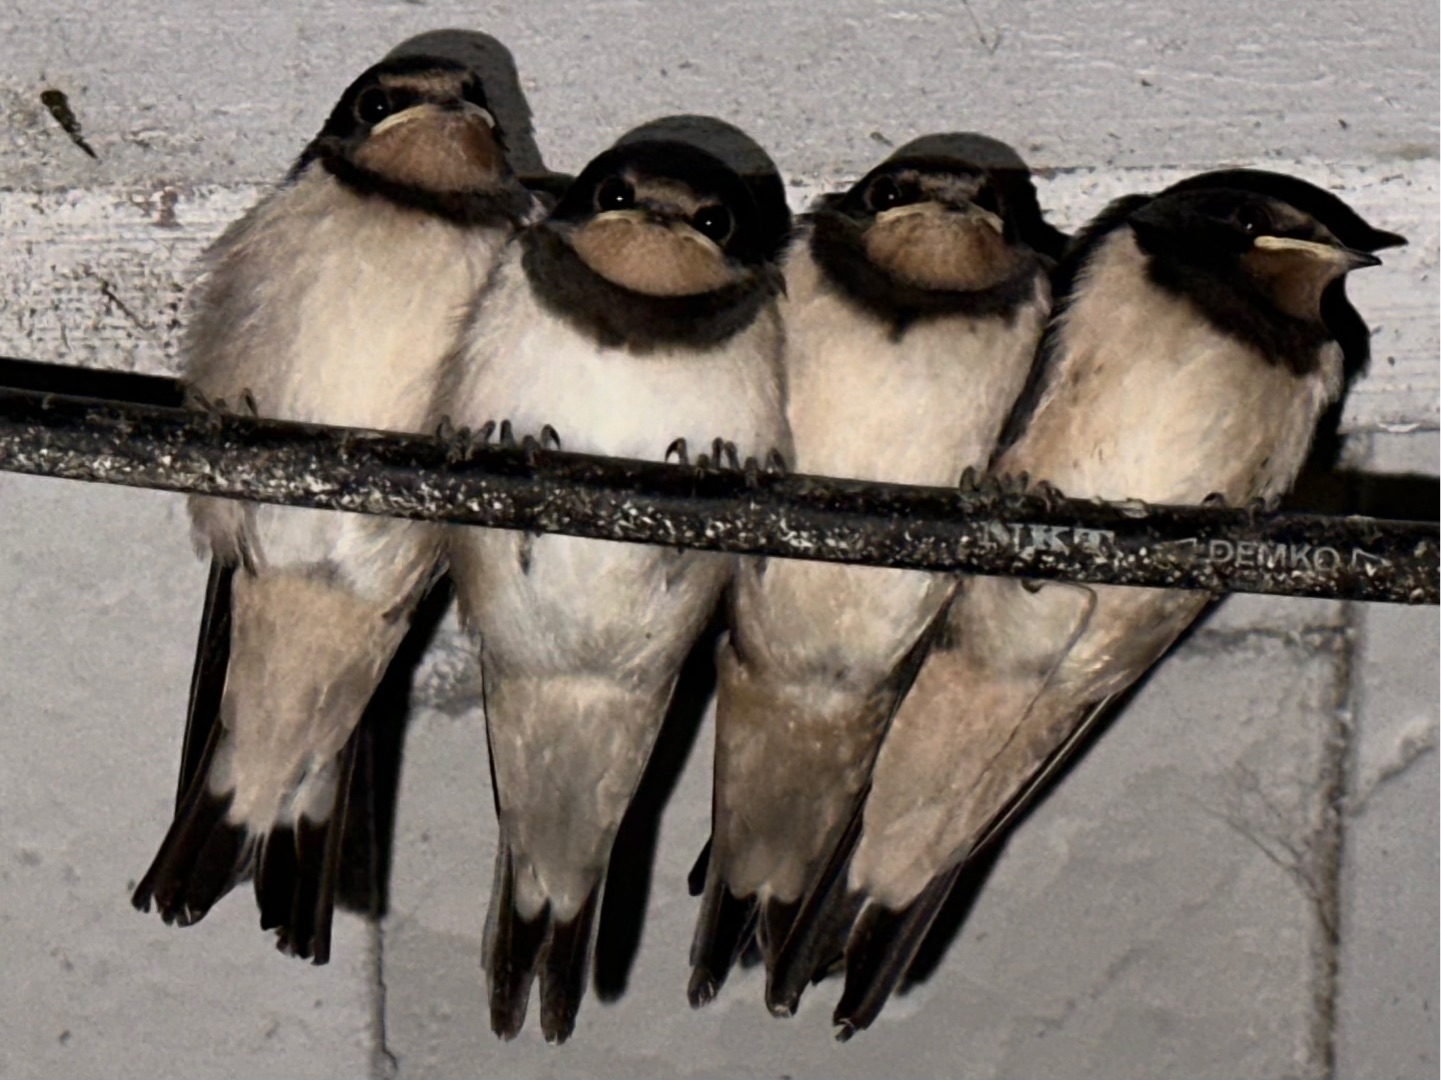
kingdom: Animalia
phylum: Chordata
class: Aves
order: Passeriformes
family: Hirundinidae
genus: Hirundo
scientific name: Hirundo rustica
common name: Landsvale
